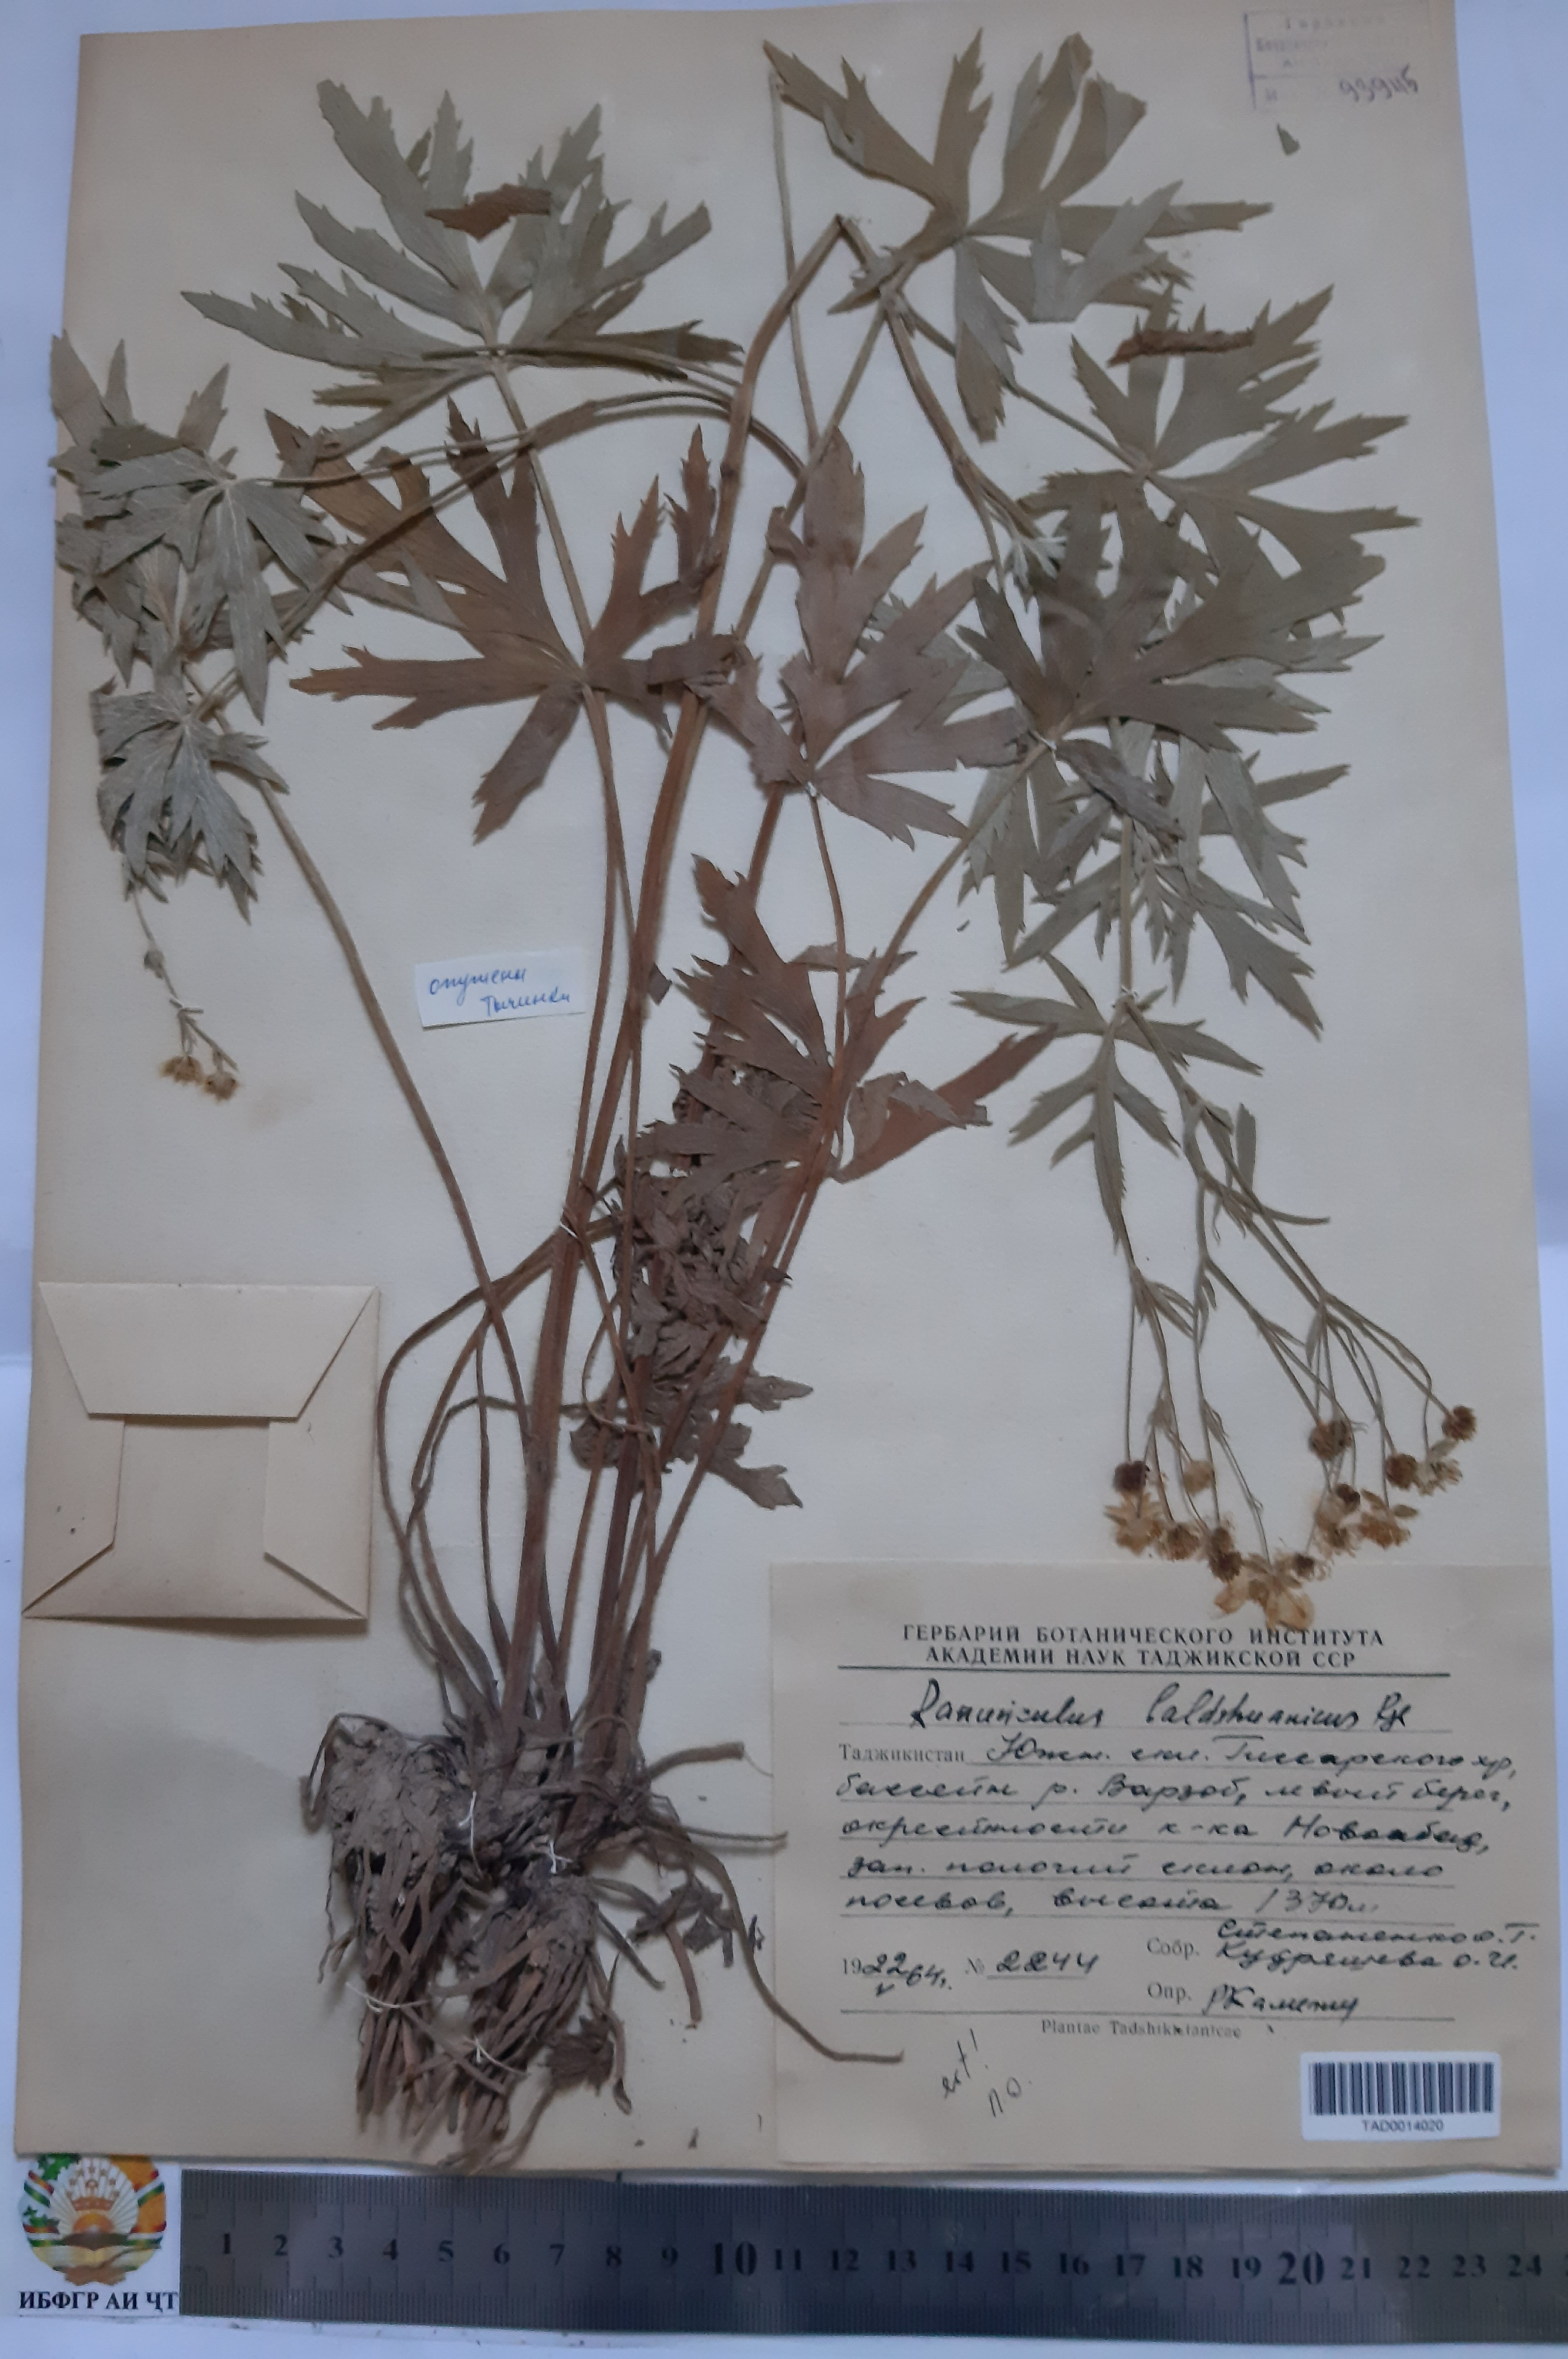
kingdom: Plantae
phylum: Tracheophyta
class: Magnoliopsida
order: Ranunculales
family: Ranunculaceae
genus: Ranunculus
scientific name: Ranunculus baldshuanicus
